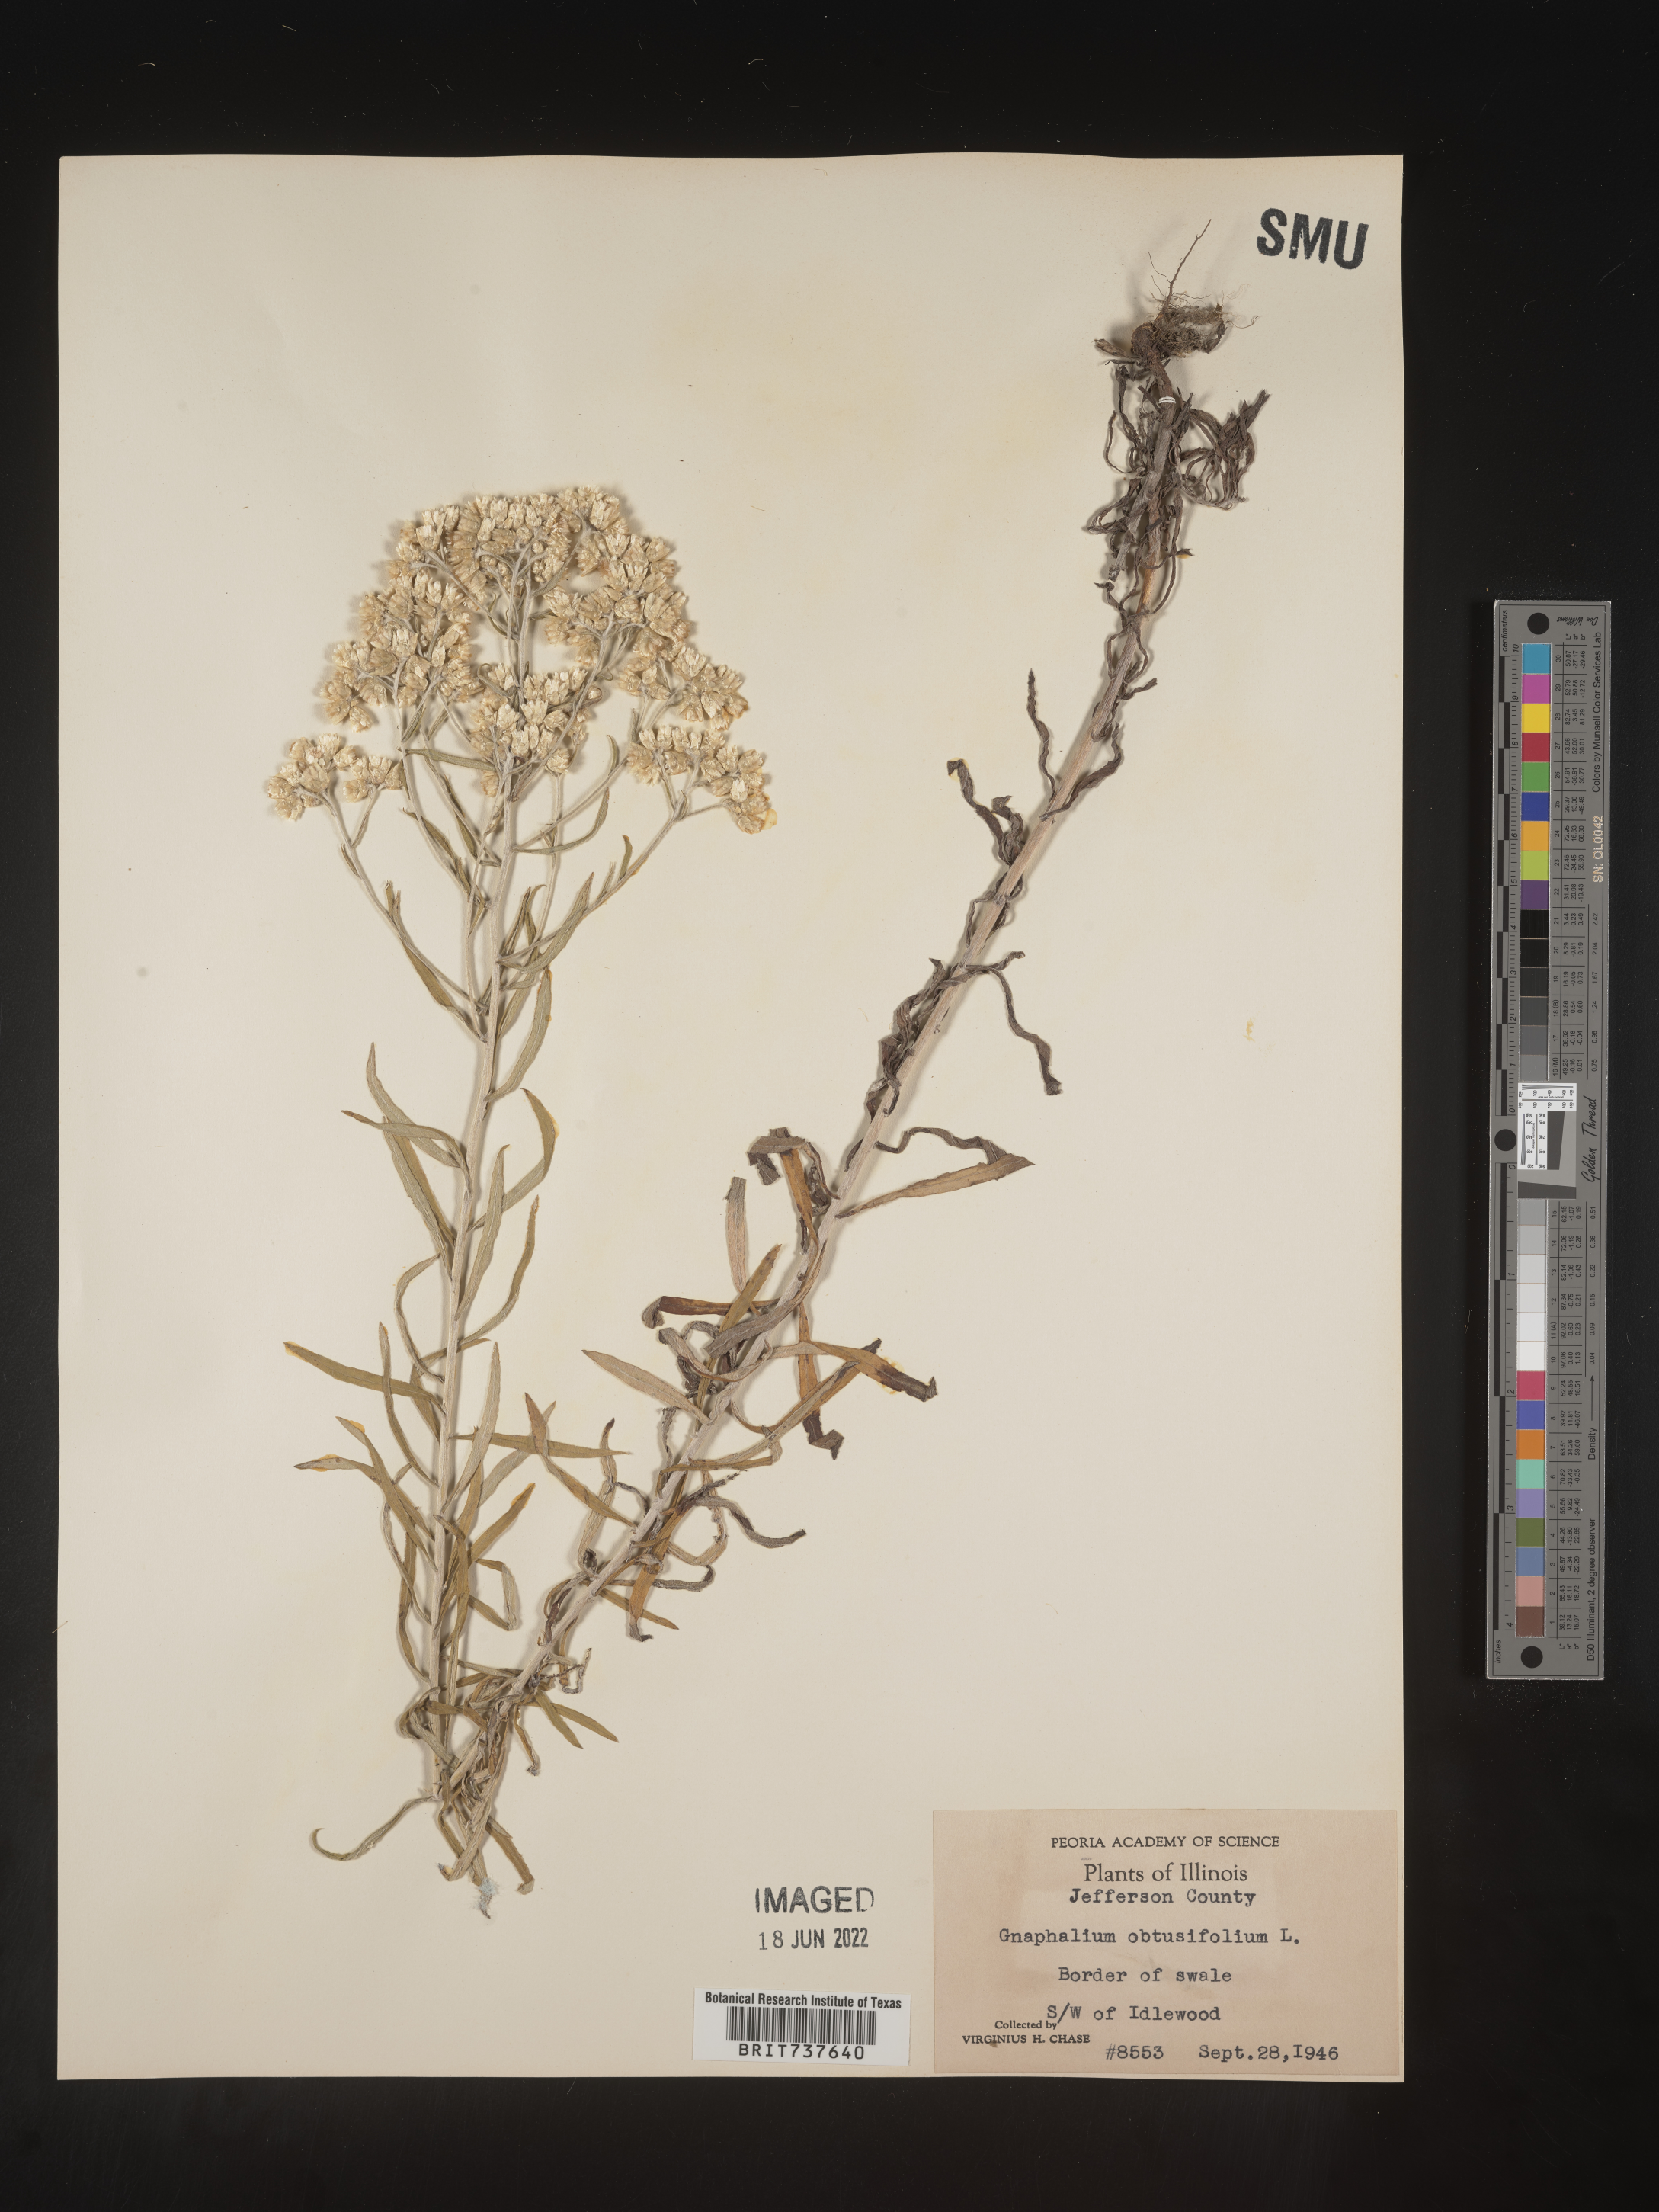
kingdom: Plantae
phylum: Tracheophyta
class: Magnoliopsida
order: Asterales
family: Asteraceae
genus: Pseudognaphalium
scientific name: Pseudognaphalium obtusifolium
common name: Eastern rabbit-tobacco
